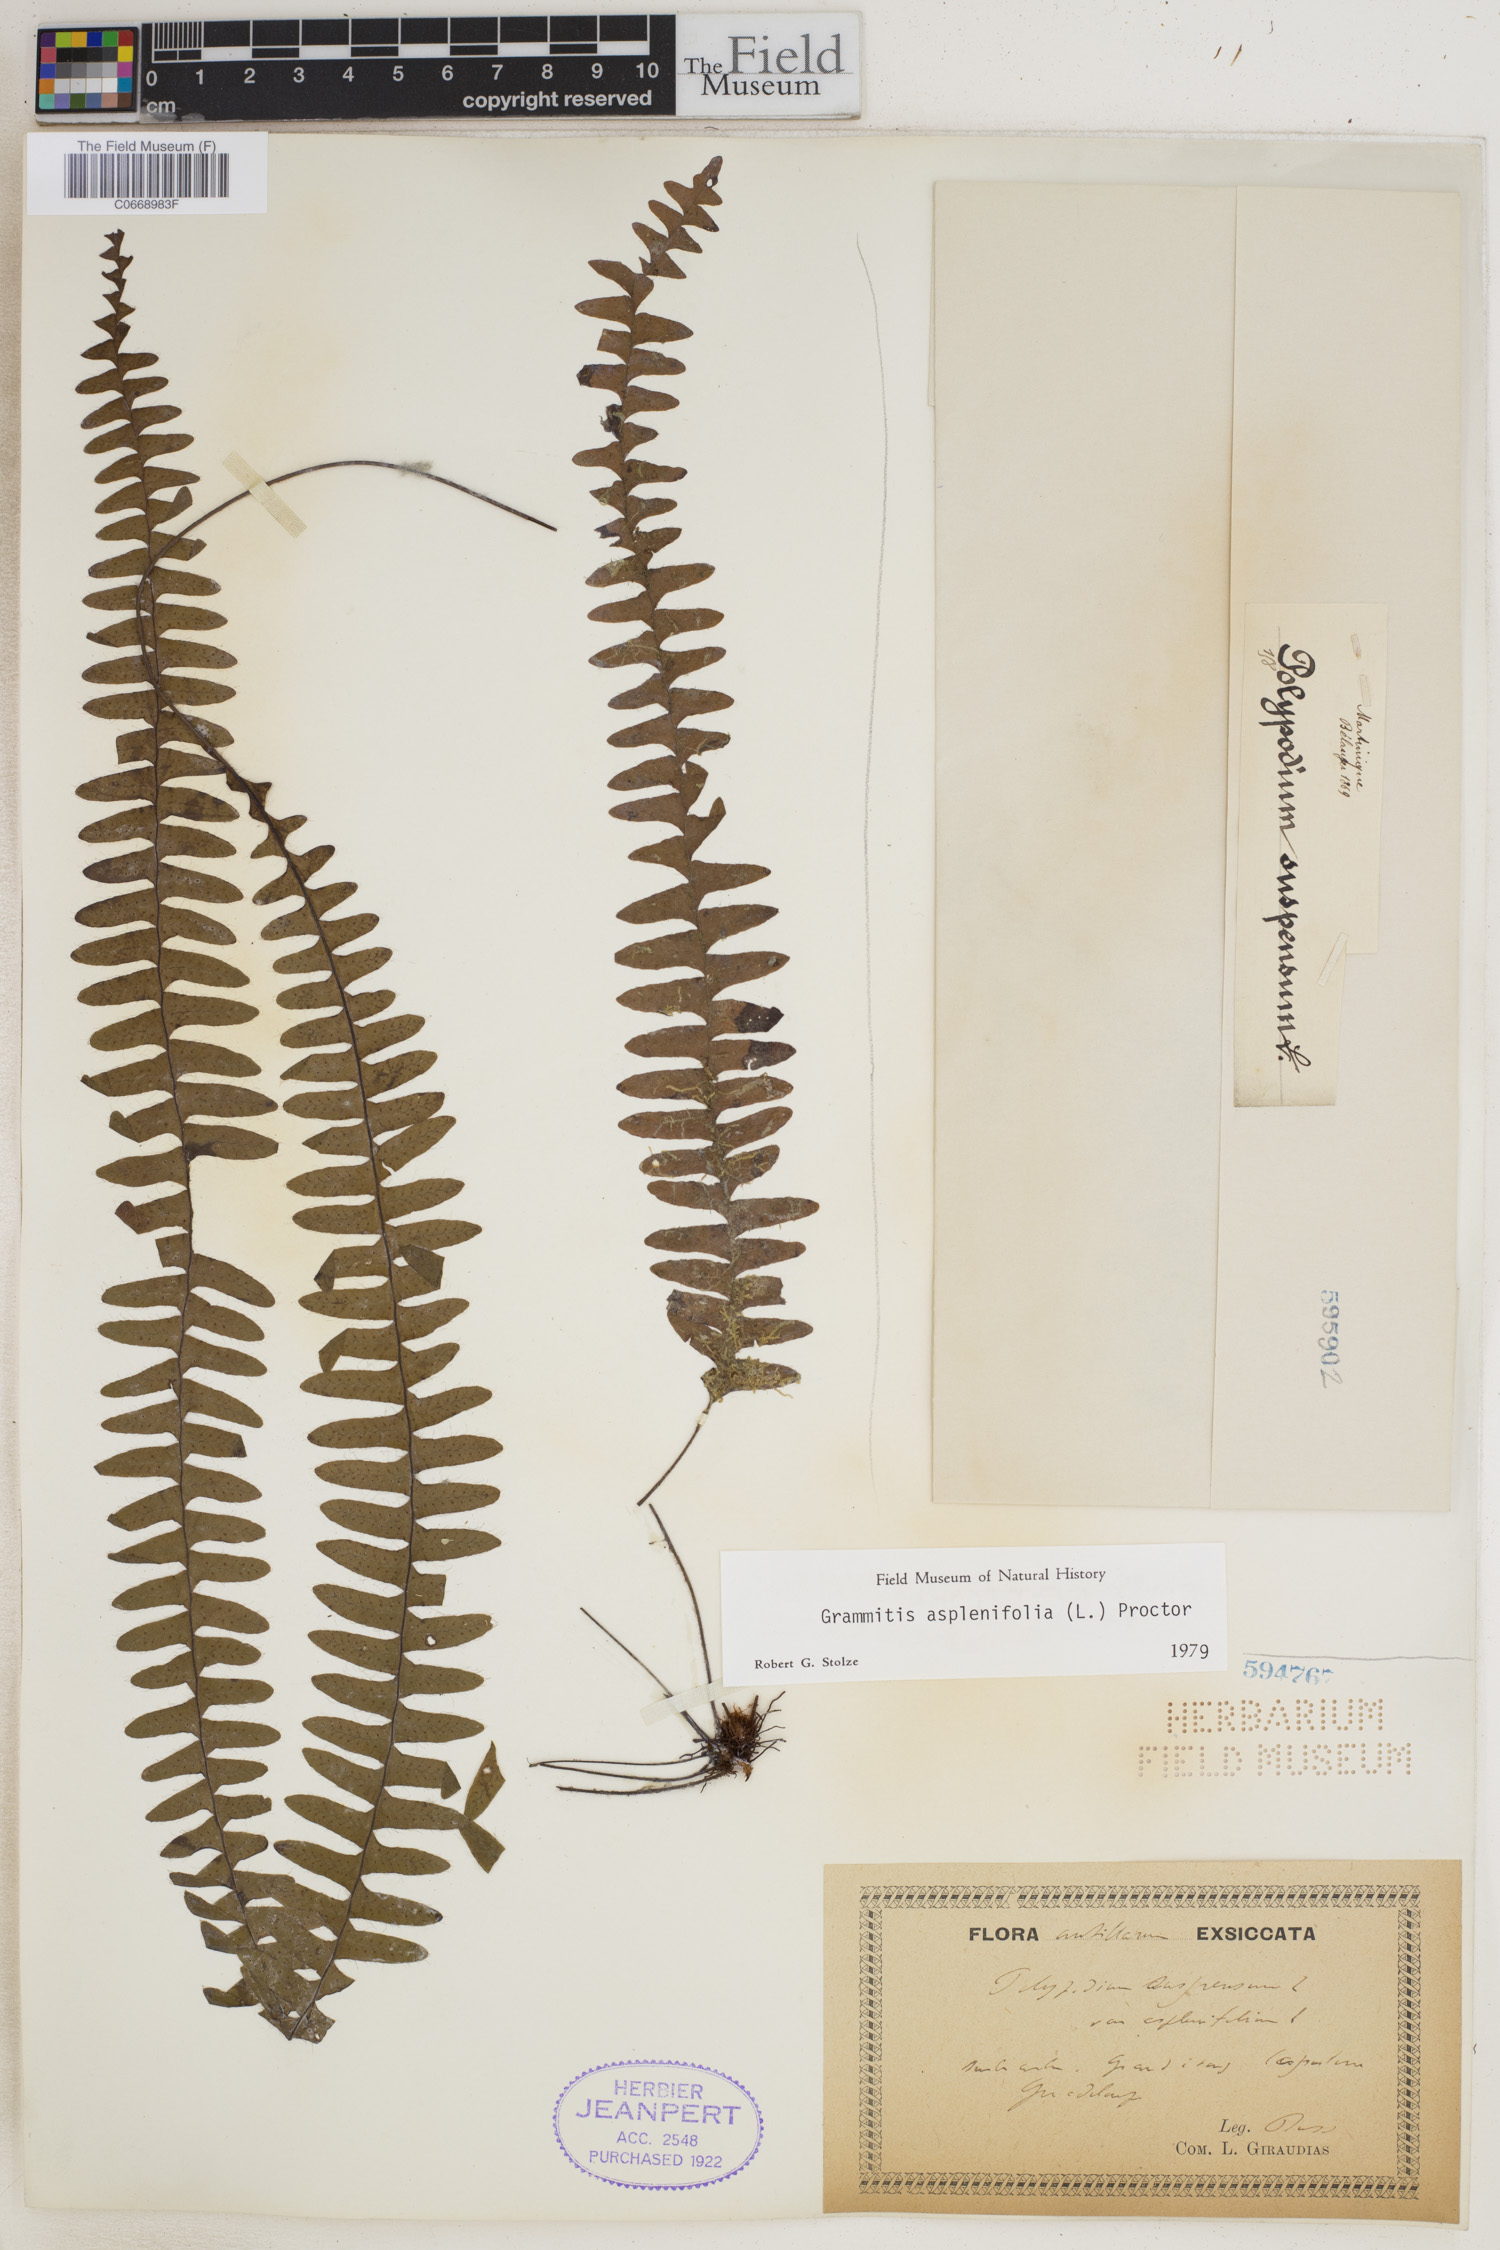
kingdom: Plantae
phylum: Tracheophyta
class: Polypodiopsida
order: Polypodiales
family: Polypodiaceae
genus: Terpsichore
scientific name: Terpsichore asplenifolia
